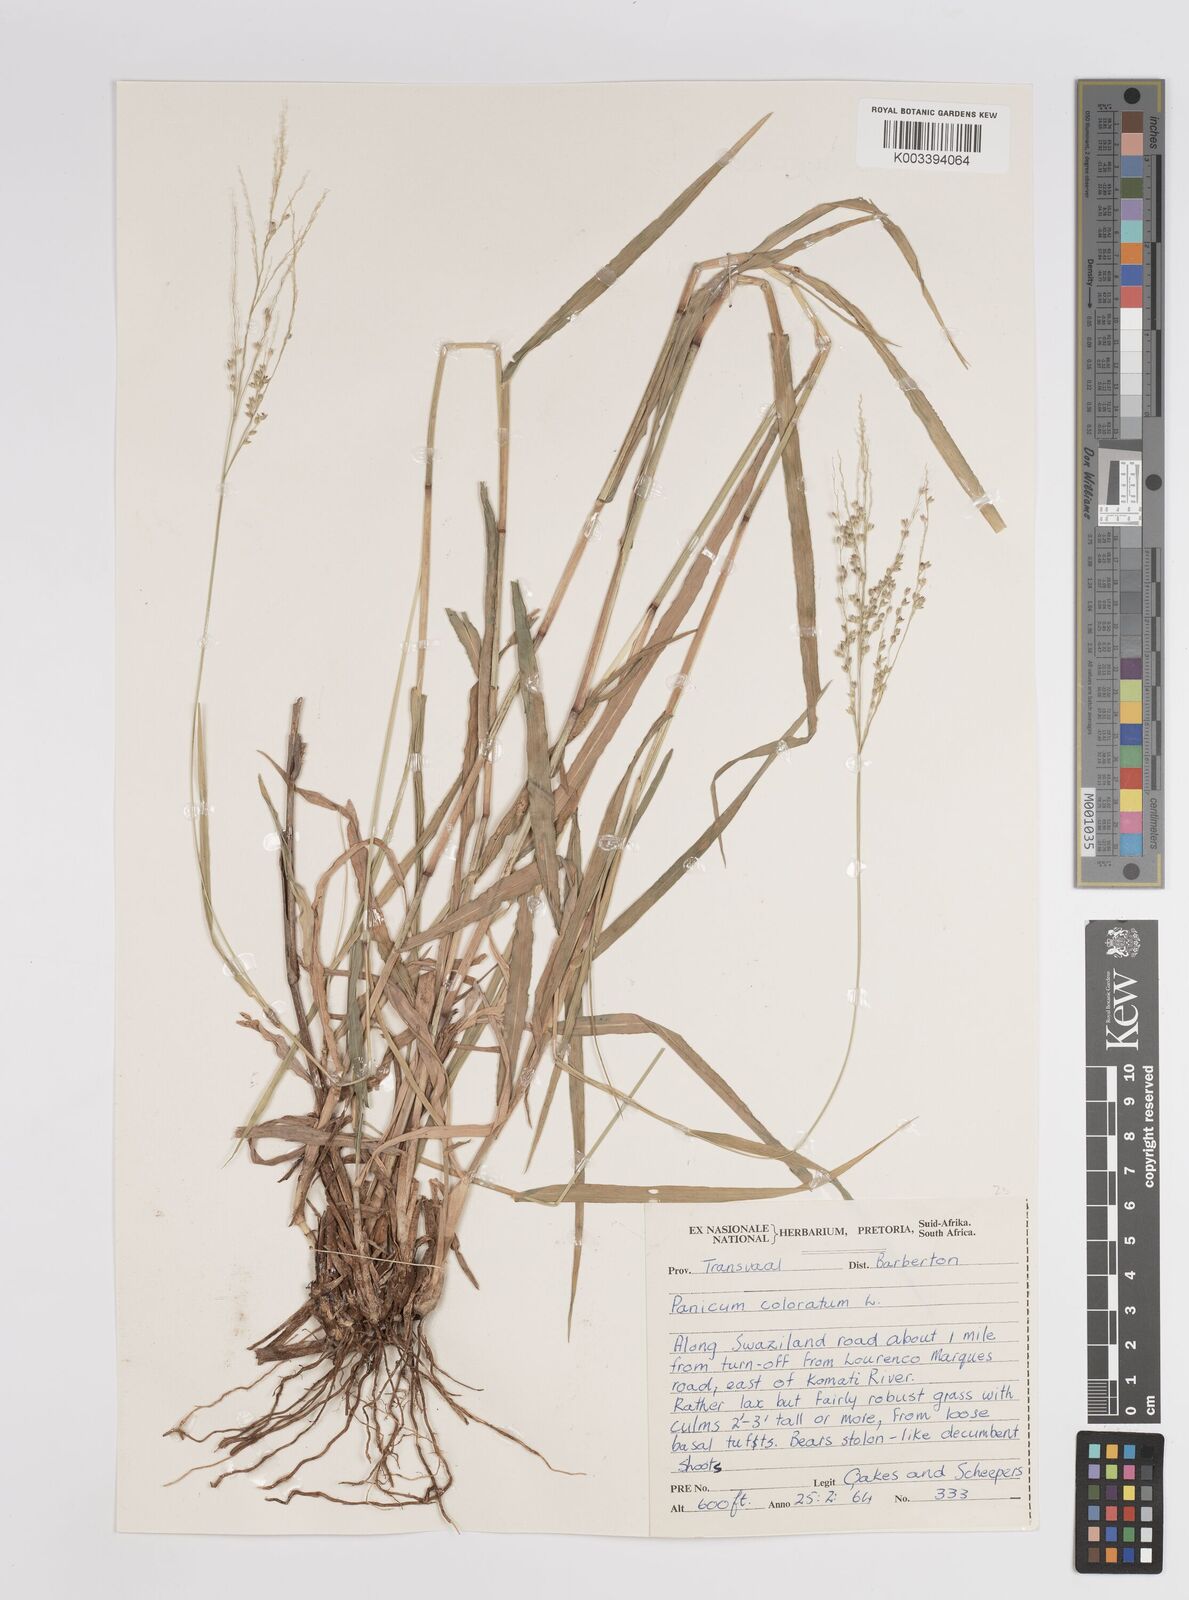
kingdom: Plantae
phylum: Tracheophyta
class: Liliopsida
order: Poales
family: Poaceae
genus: Panicum
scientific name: Panicum coloratum
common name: Kleingrass
